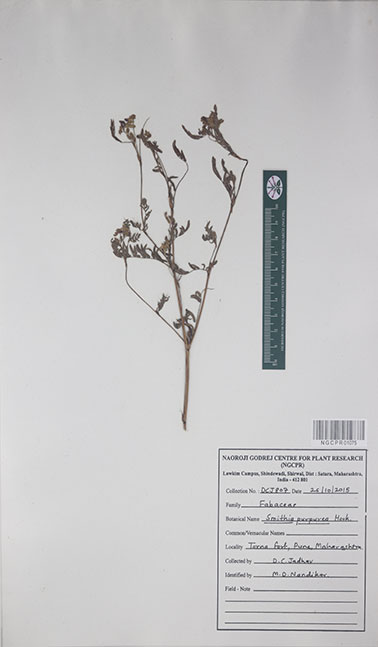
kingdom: Plantae
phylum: Tracheophyta
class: Magnoliopsida
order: Fabales
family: Fabaceae
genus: Smithia
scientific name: Smithia purpurea
